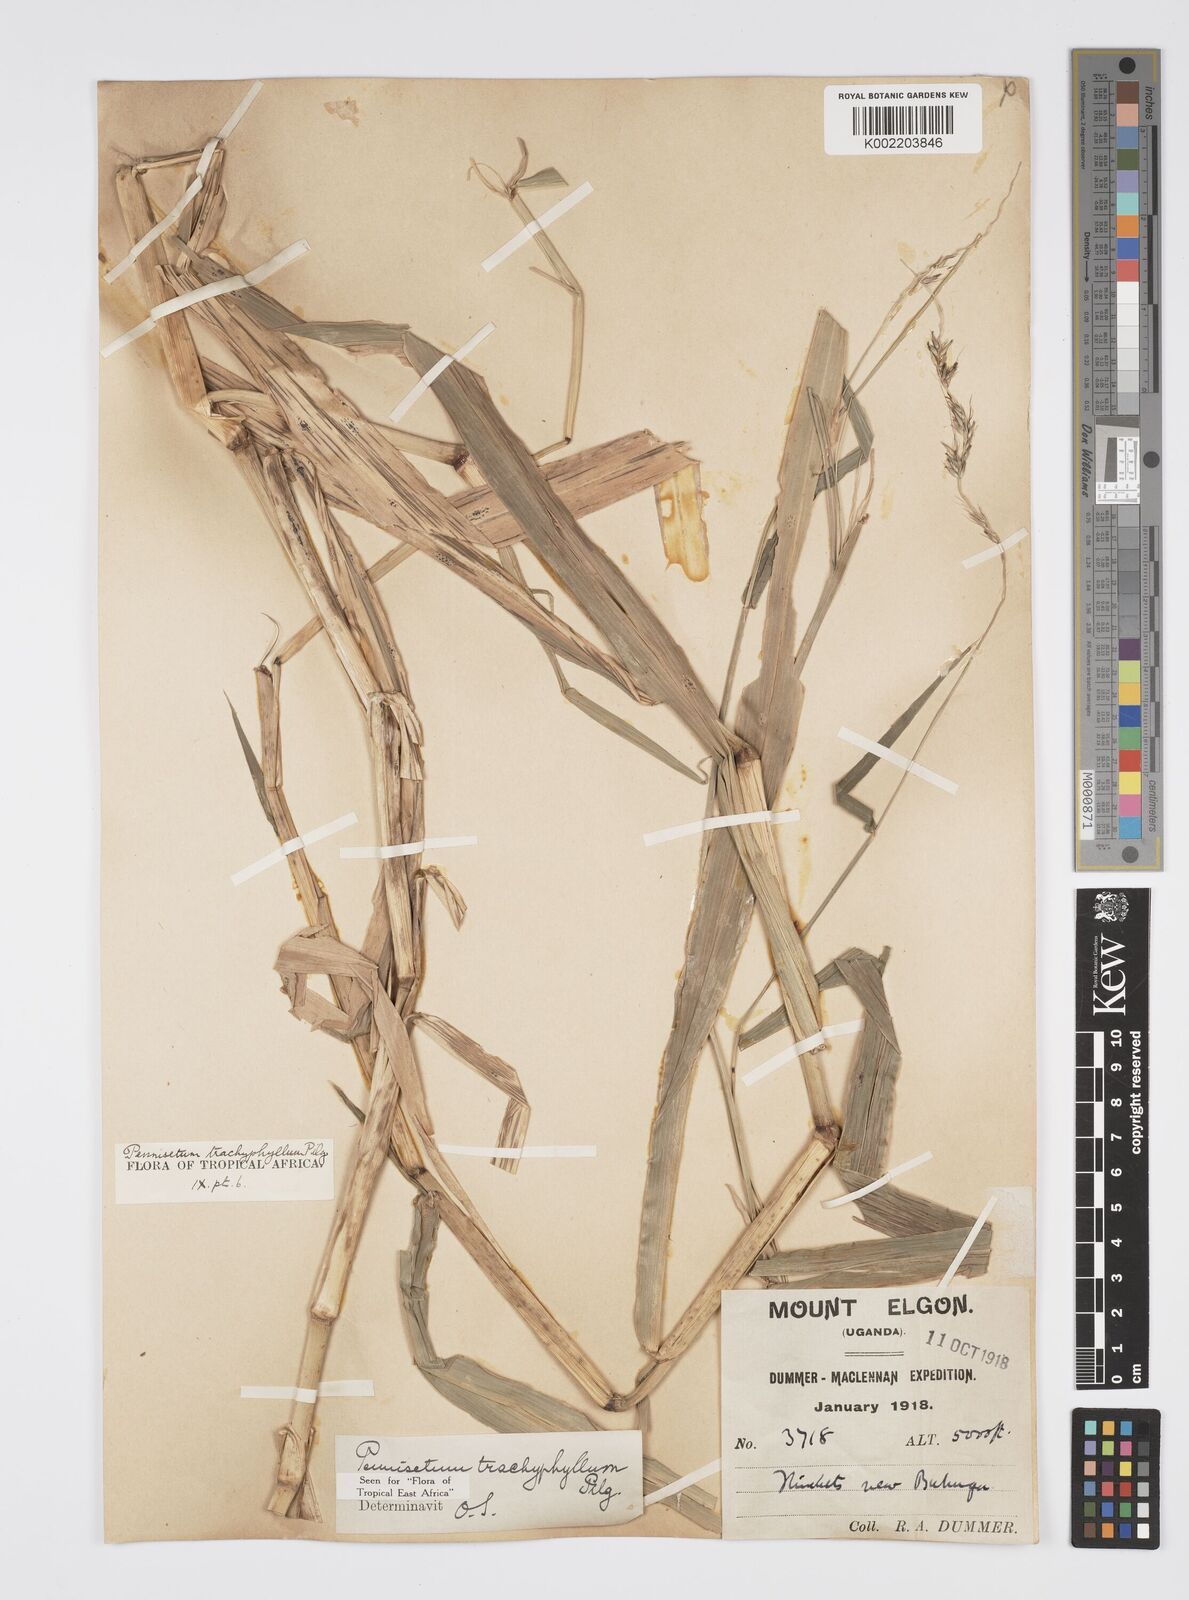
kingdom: Plantae
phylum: Tracheophyta
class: Liliopsida
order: Poales
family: Poaceae
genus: Cenchrus
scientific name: Cenchrus trachyphyllus
